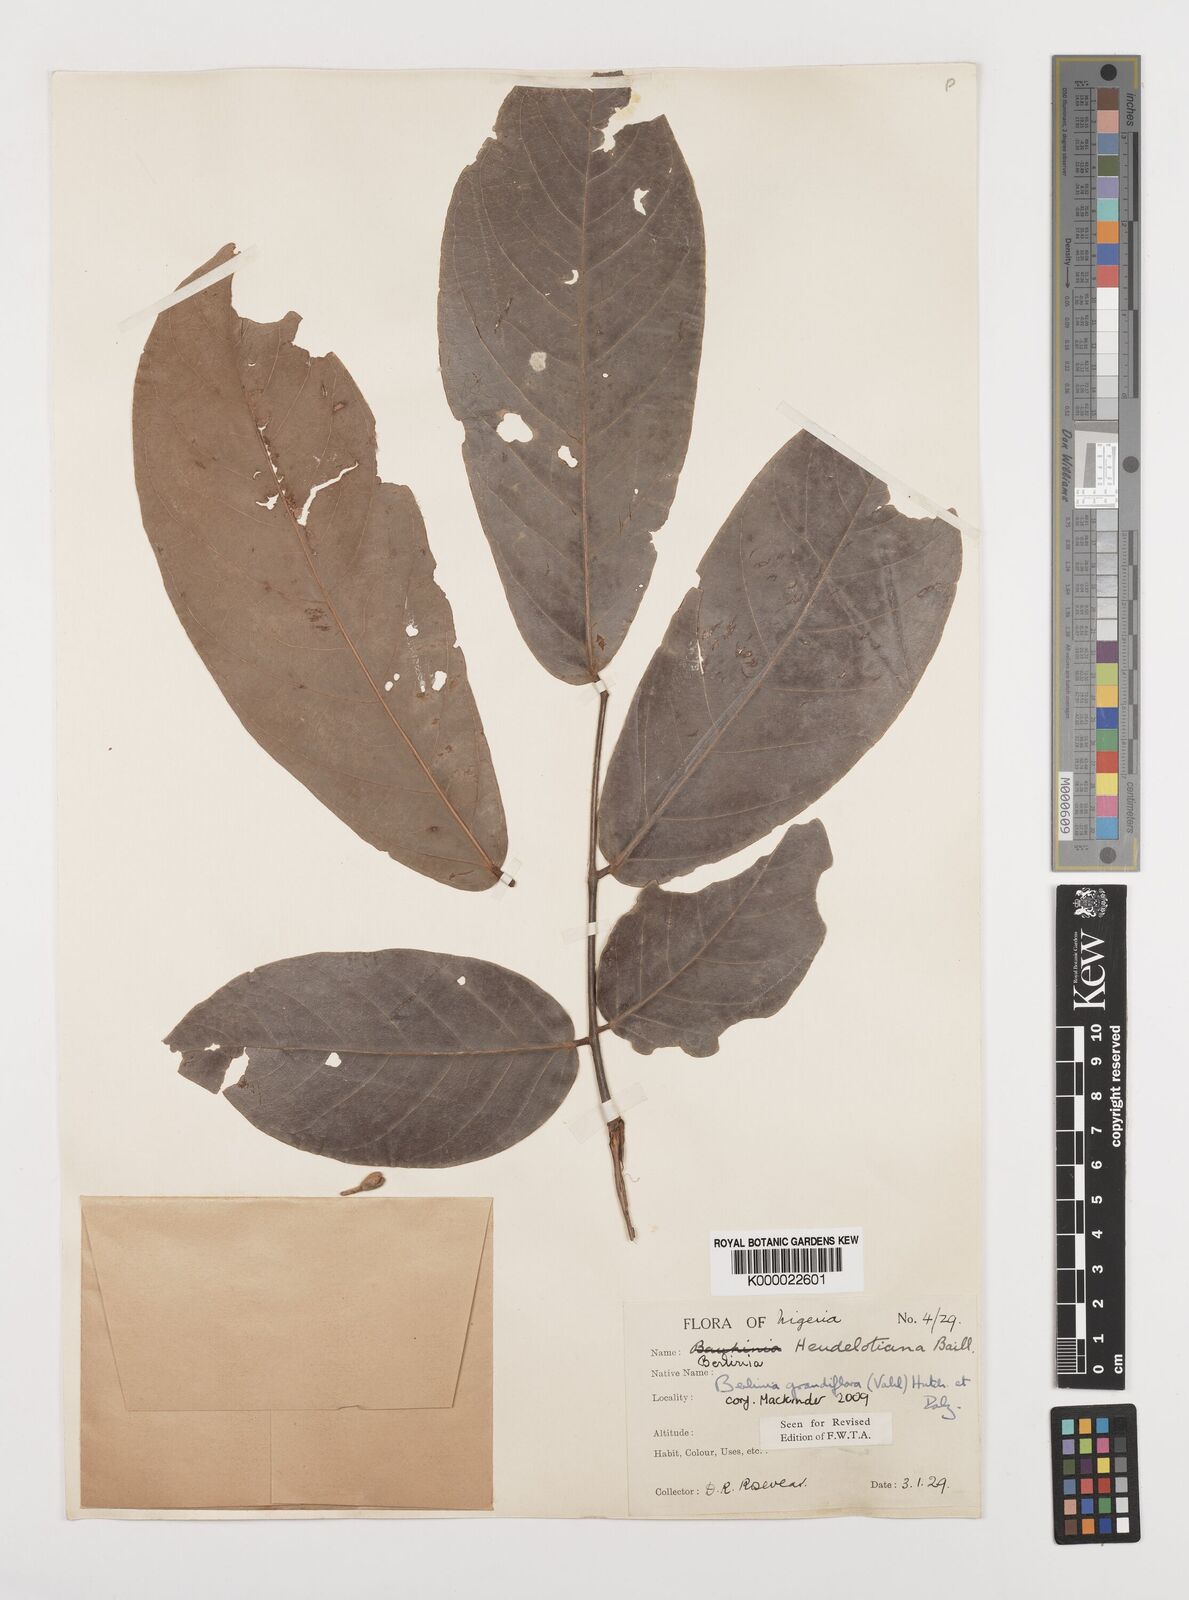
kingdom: Plantae
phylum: Tracheophyta
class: Magnoliopsida
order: Fabales
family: Fabaceae
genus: Berlinia
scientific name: Berlinia grandiflora
